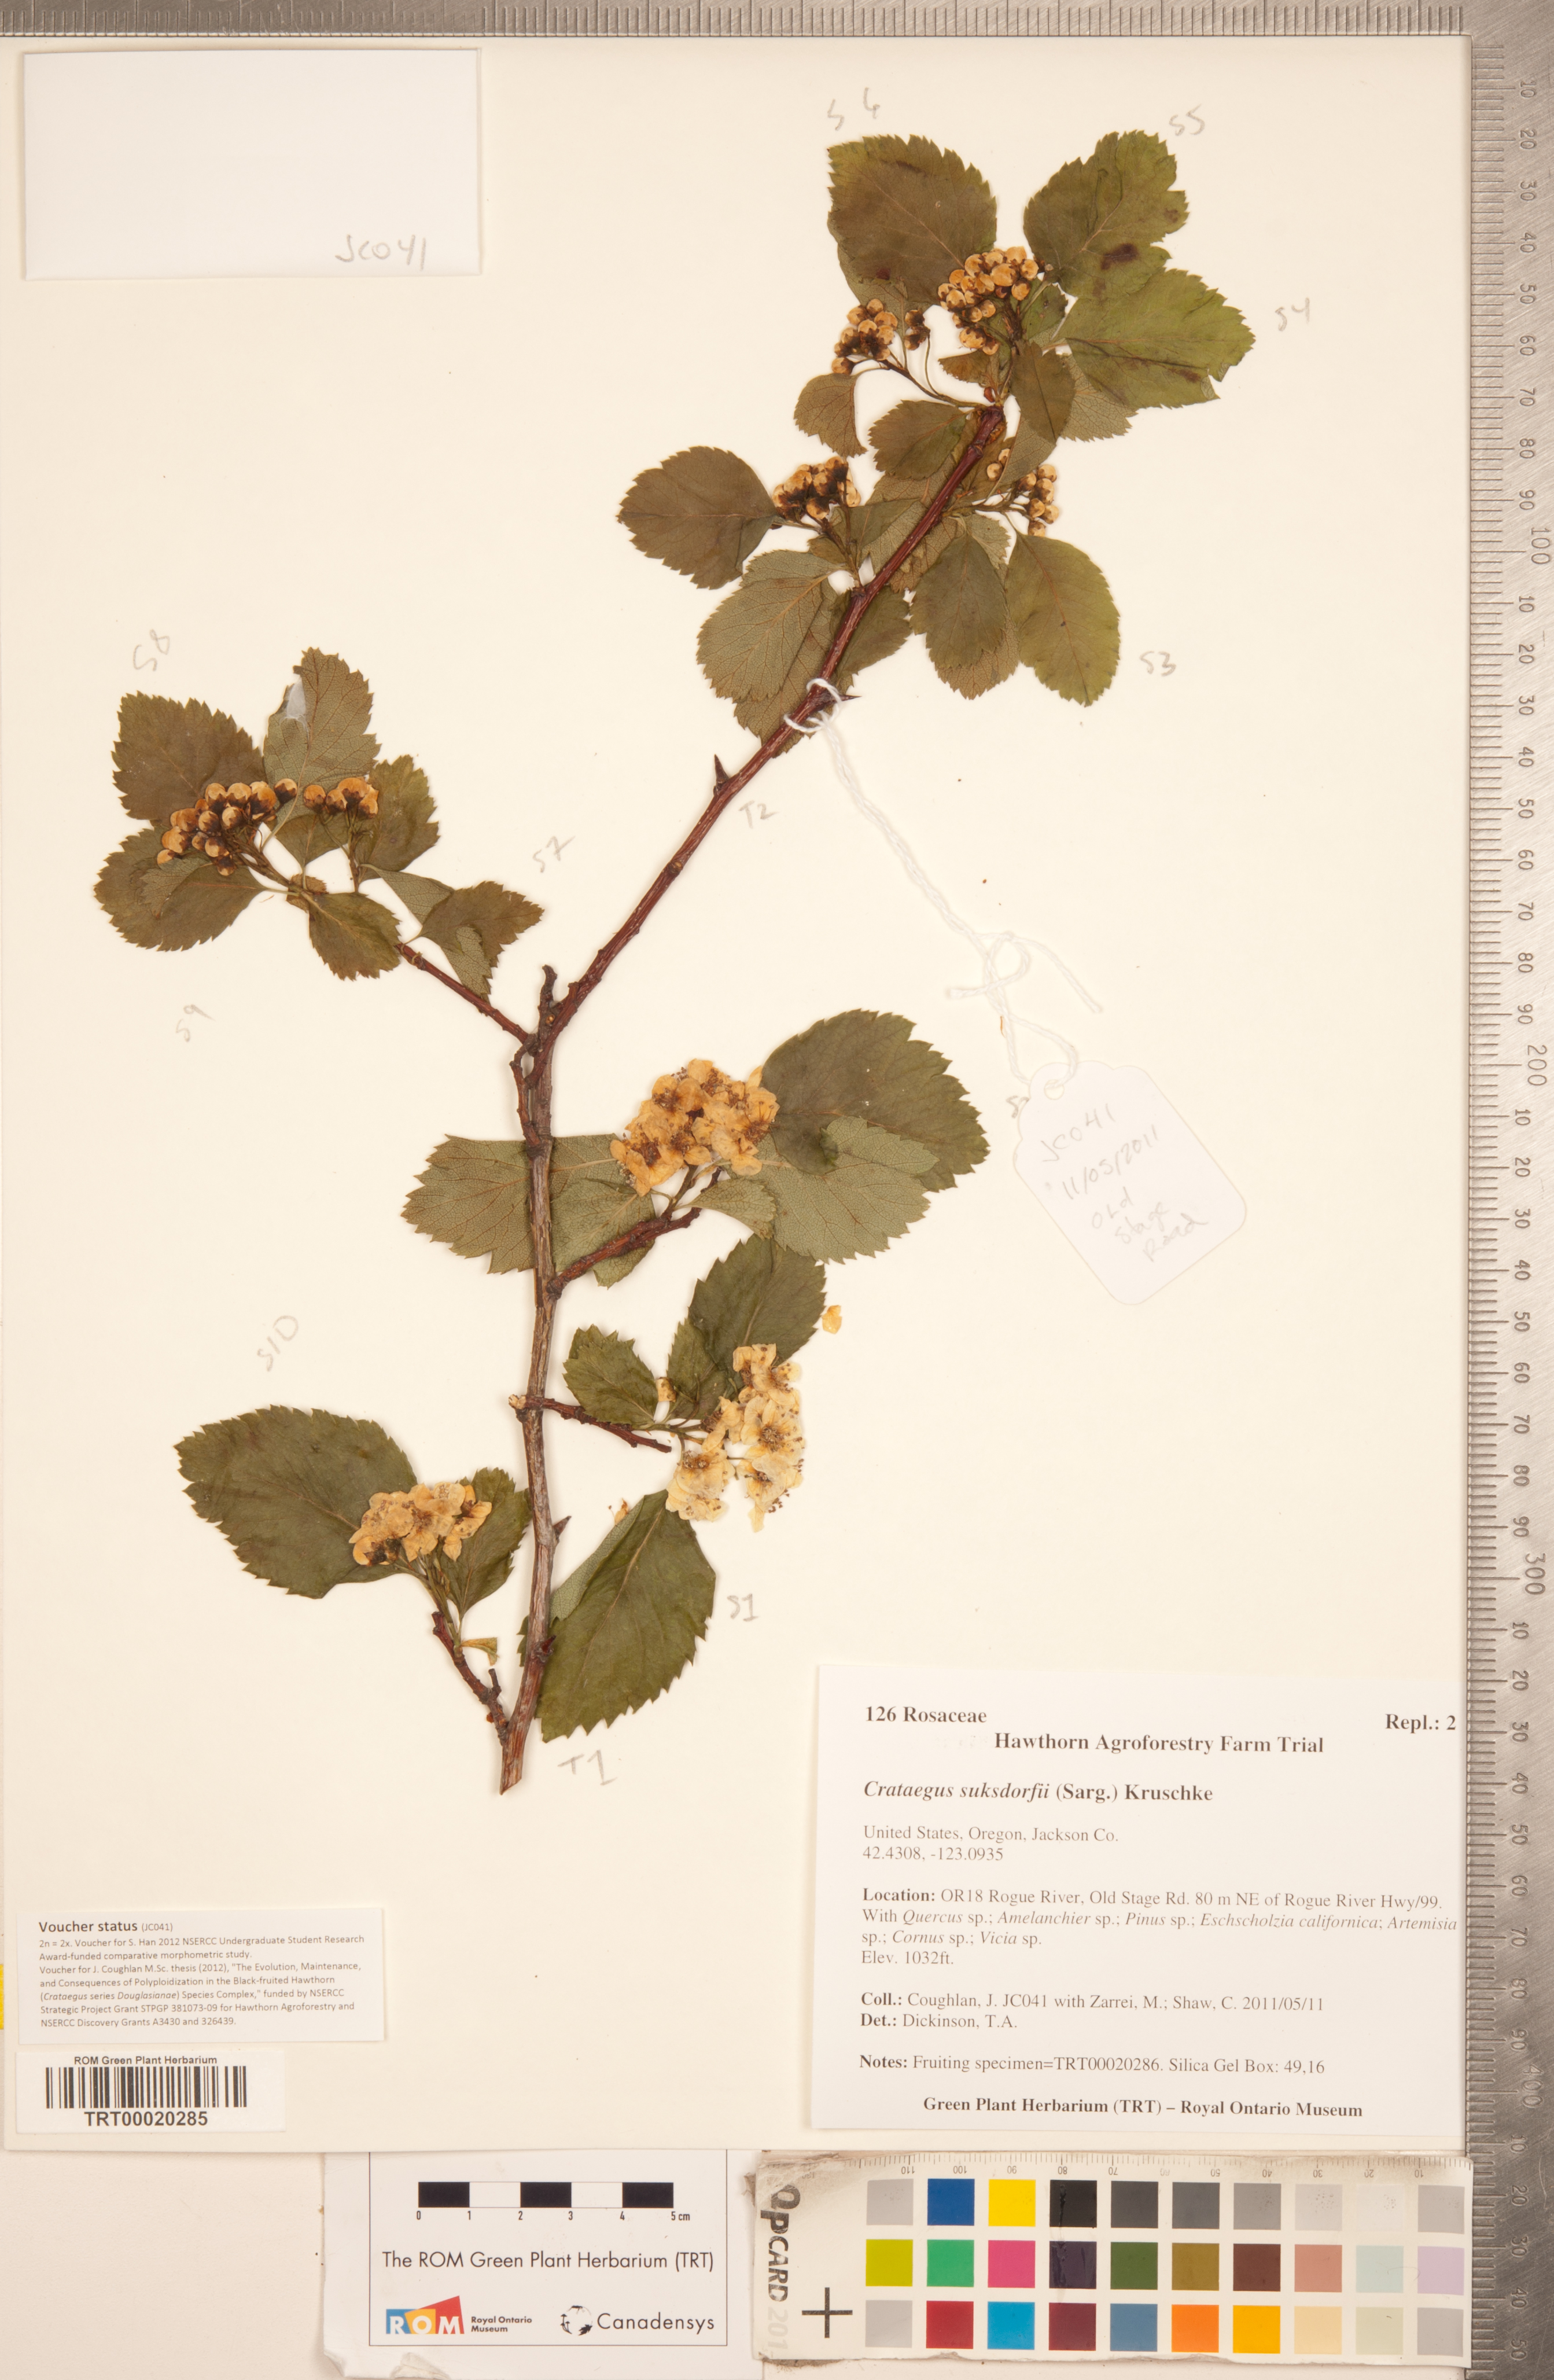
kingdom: Plantae
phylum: Tracheophyta
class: Magnoliopsida
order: Rosales
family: Rosaceae
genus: Crataegus
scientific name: Crataegus gaylussacia
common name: Huckleberry hawthorn
